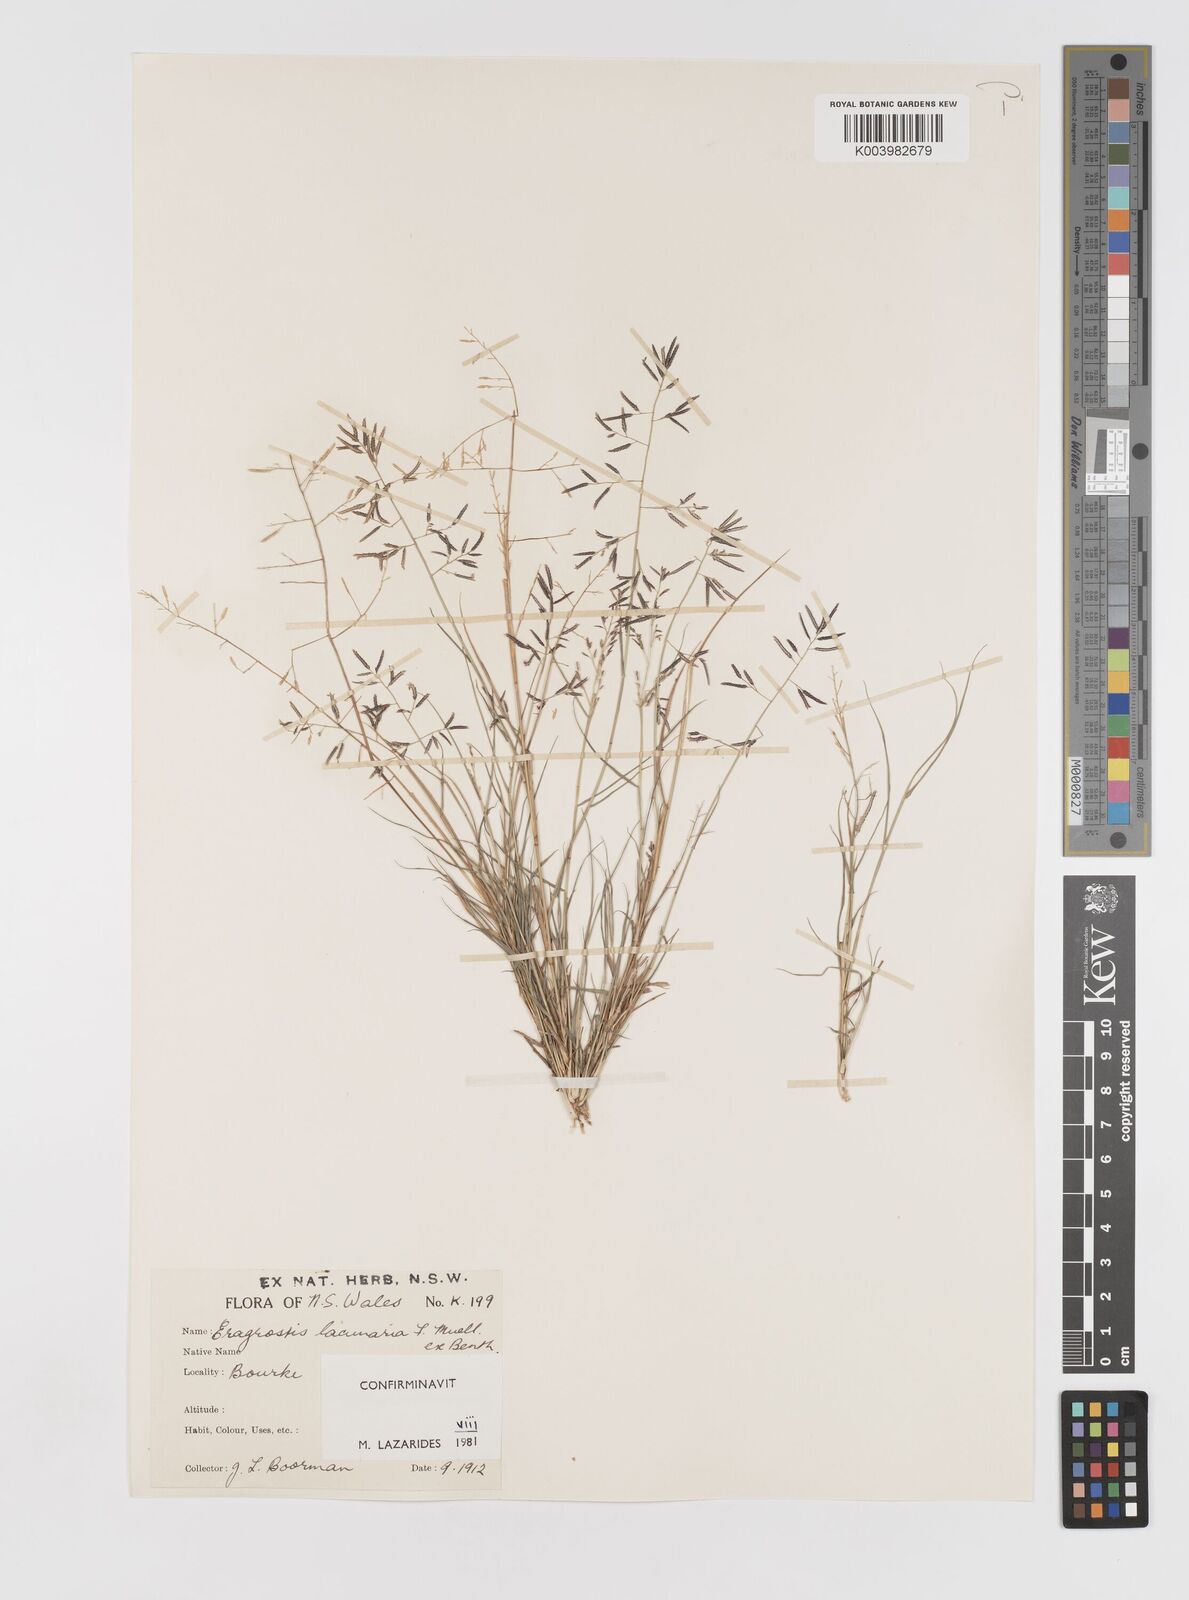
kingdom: Plantae
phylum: Tracheophyta
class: Liliopsida
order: Poales
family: Poaceae
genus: Eragrostis
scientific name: Eragrostis lacunaria
